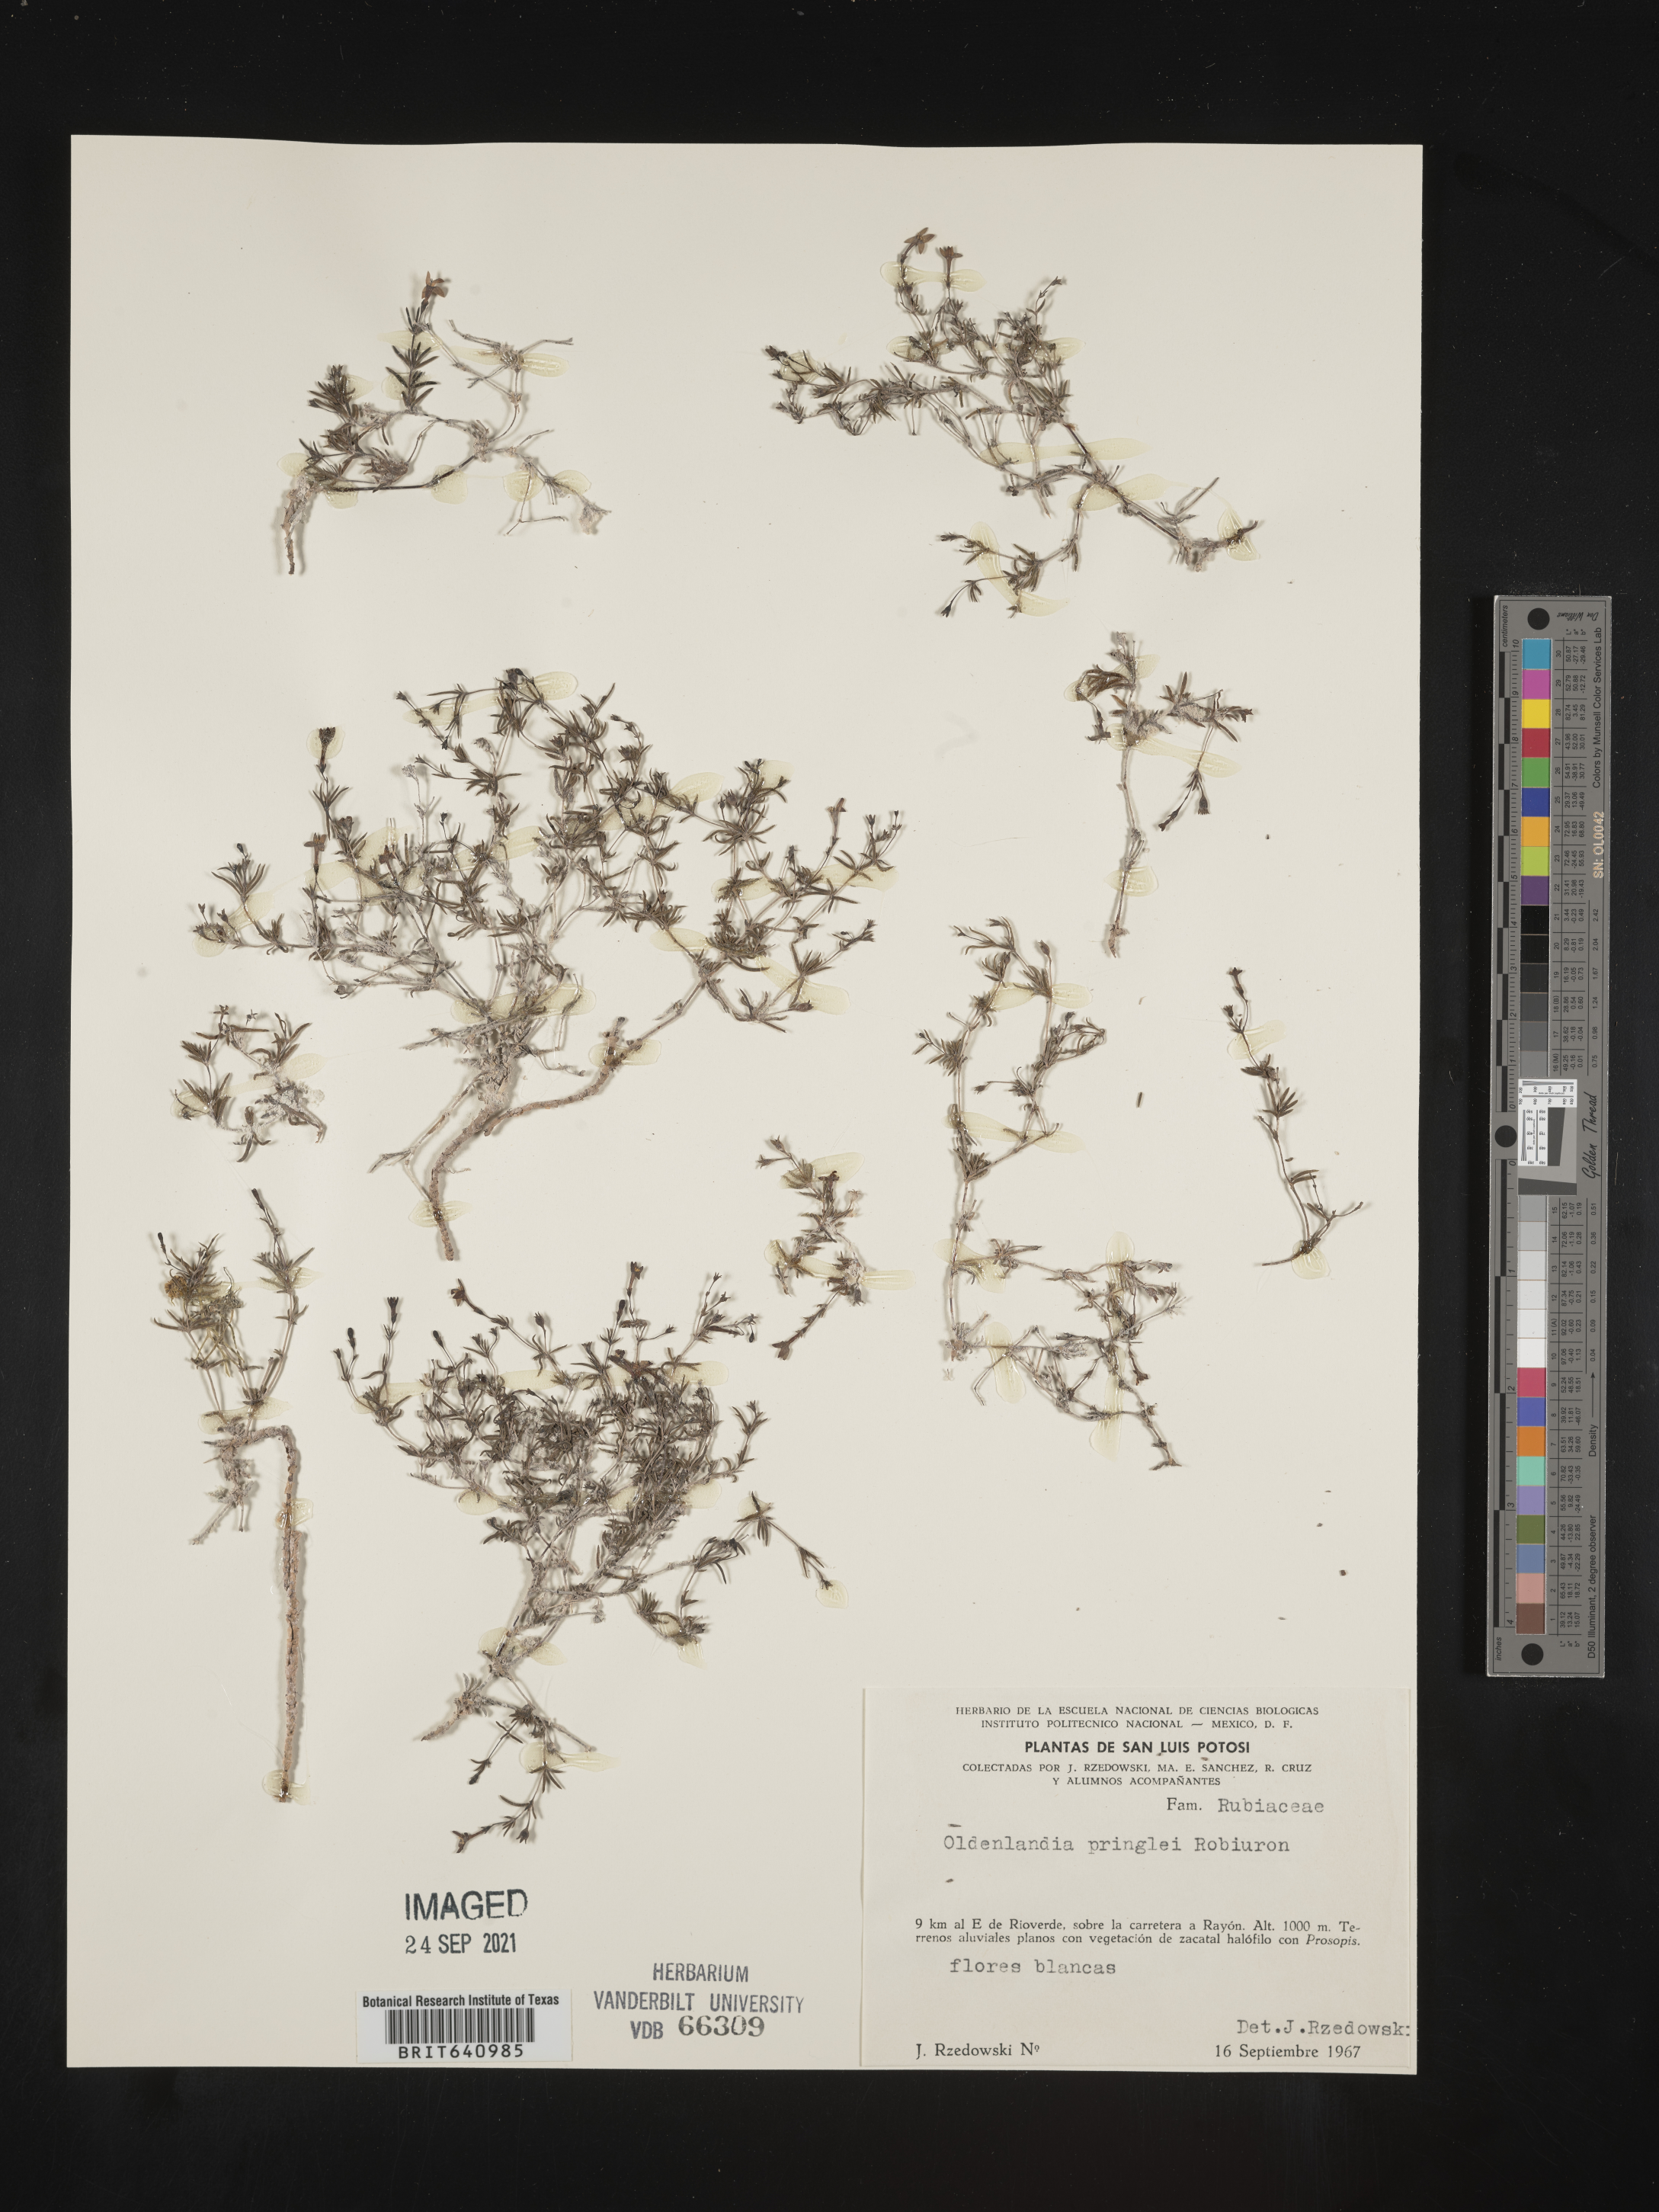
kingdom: Plantae
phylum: Tracheophyta
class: Magnoliopsida
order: Gentianales
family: Rubiaceae
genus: Oldenlandia
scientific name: Oldenlandia pringlei
